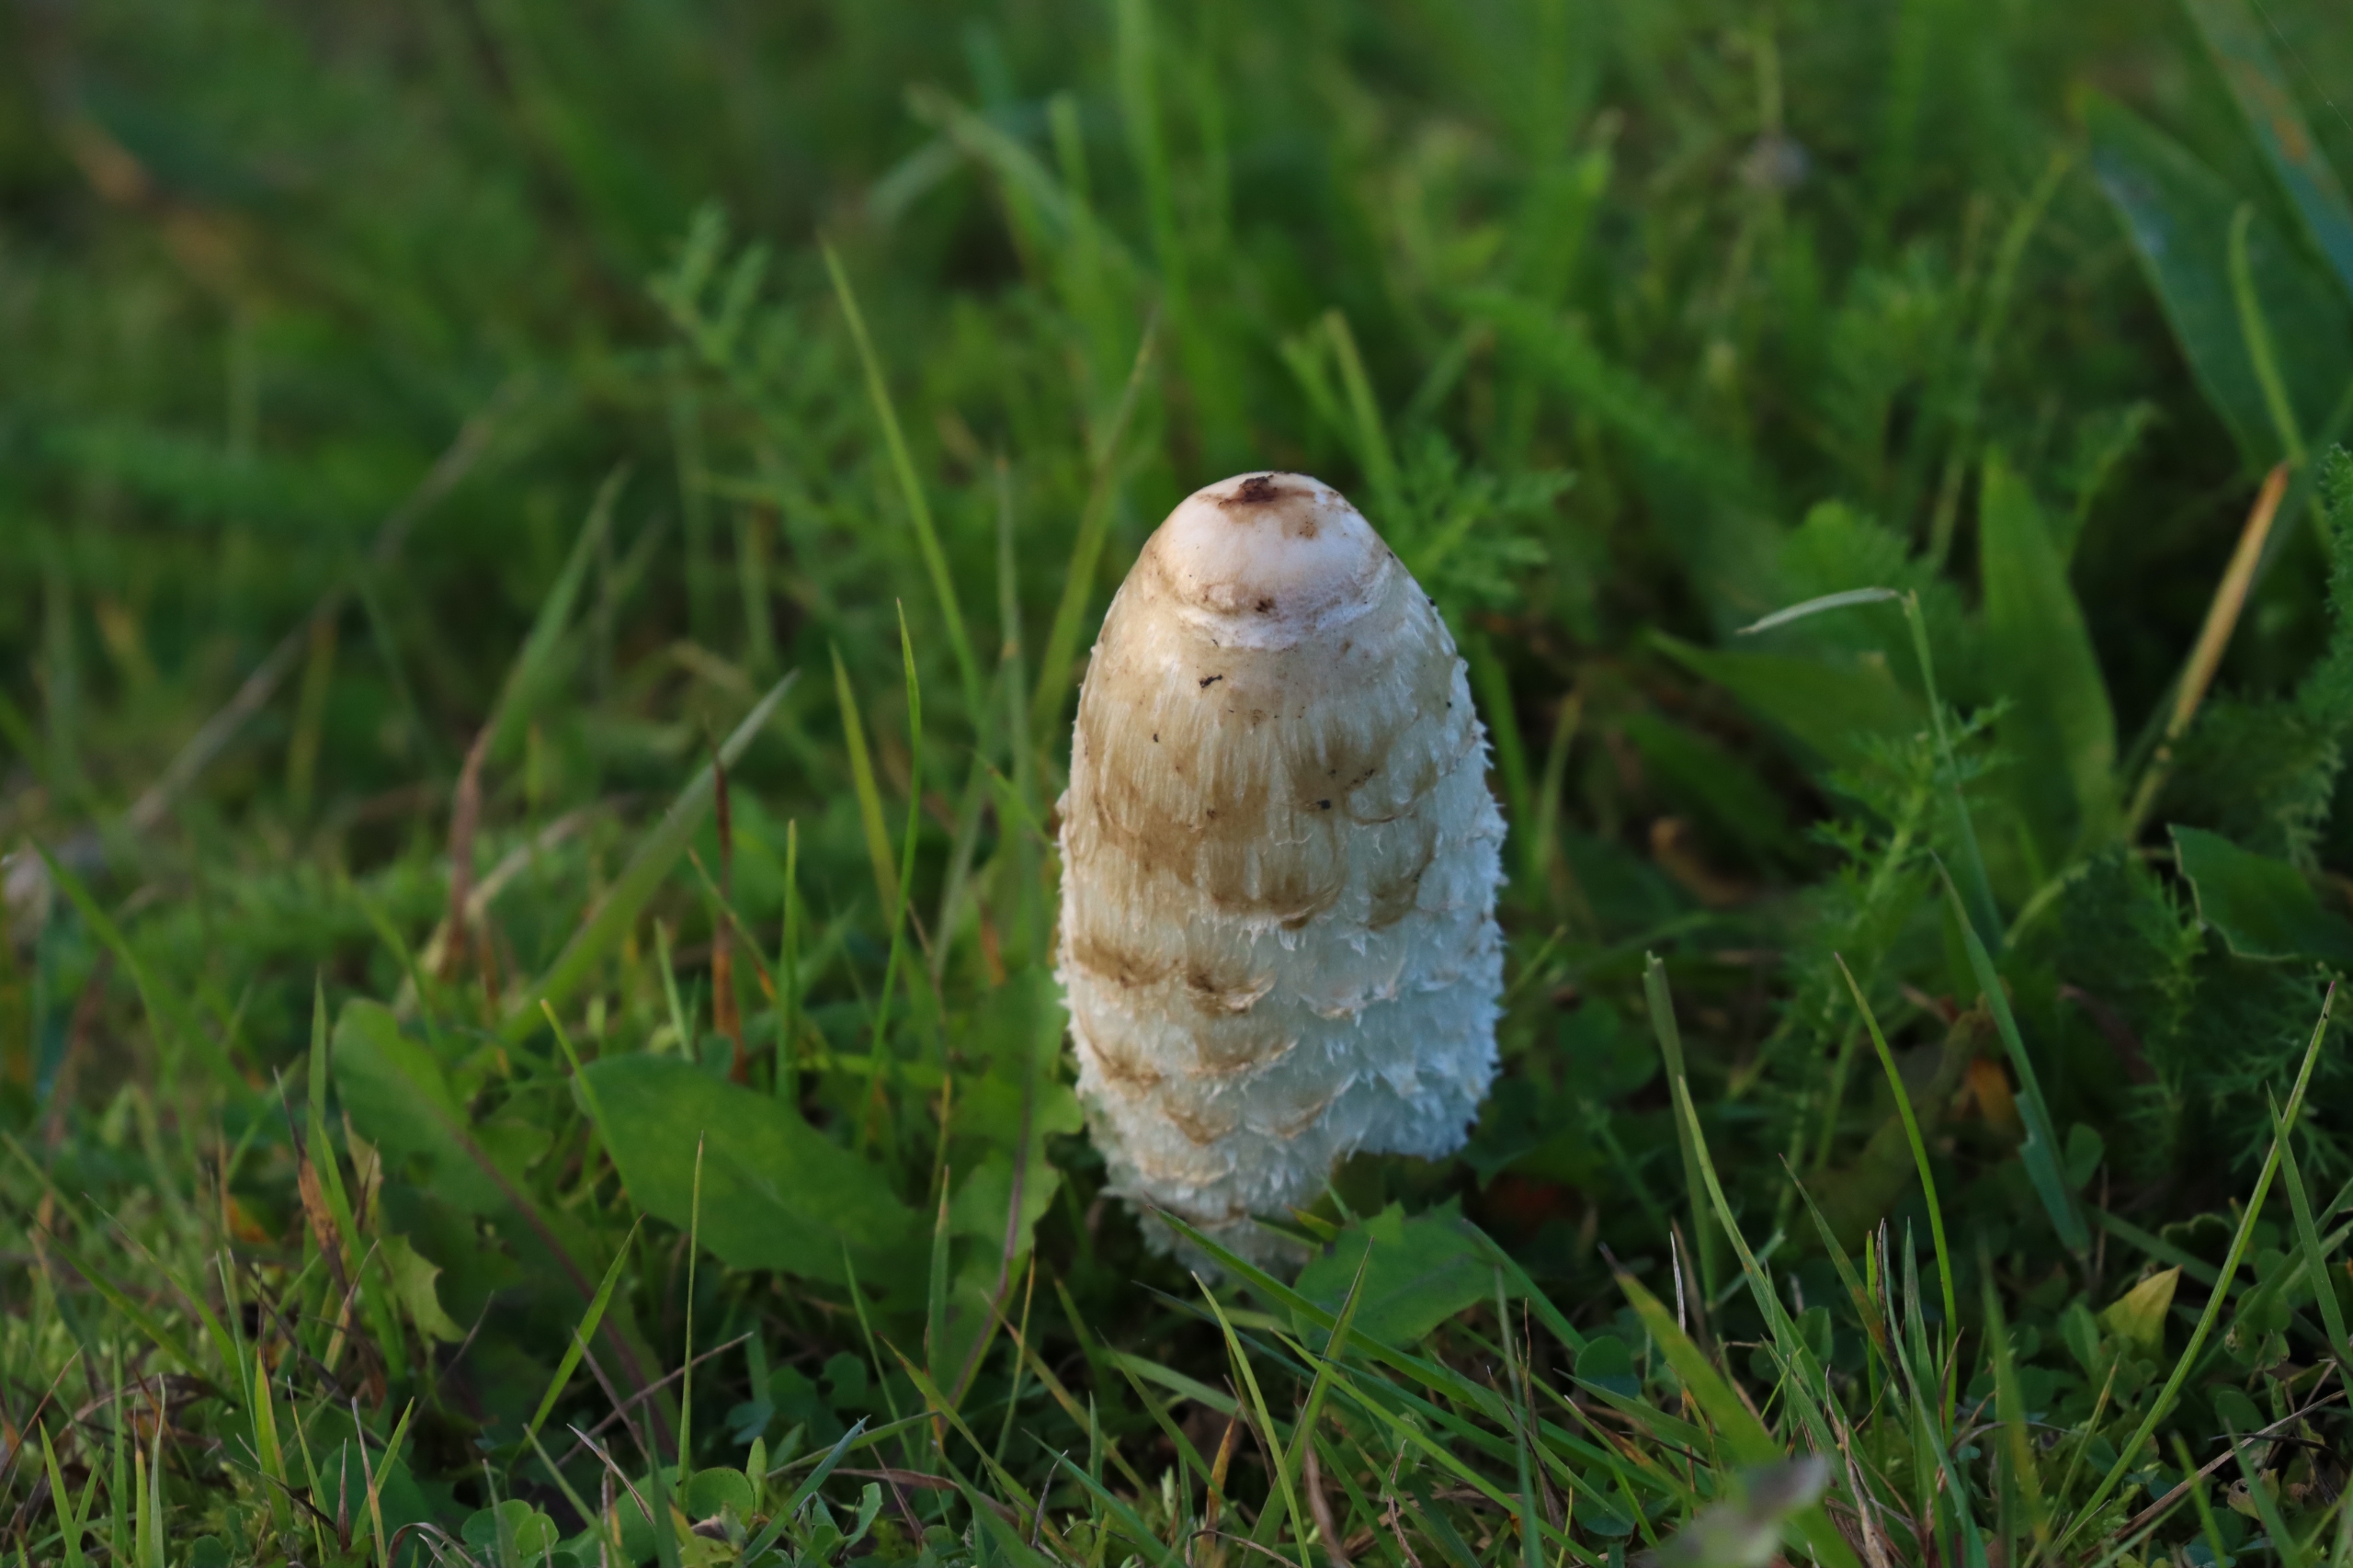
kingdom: Fungi
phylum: Basidiomycota
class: Agaricomycetes
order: Agaricales
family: Agaricaceae
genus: Coprinus
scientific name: Coprinus comatus
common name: Stor parykhat
